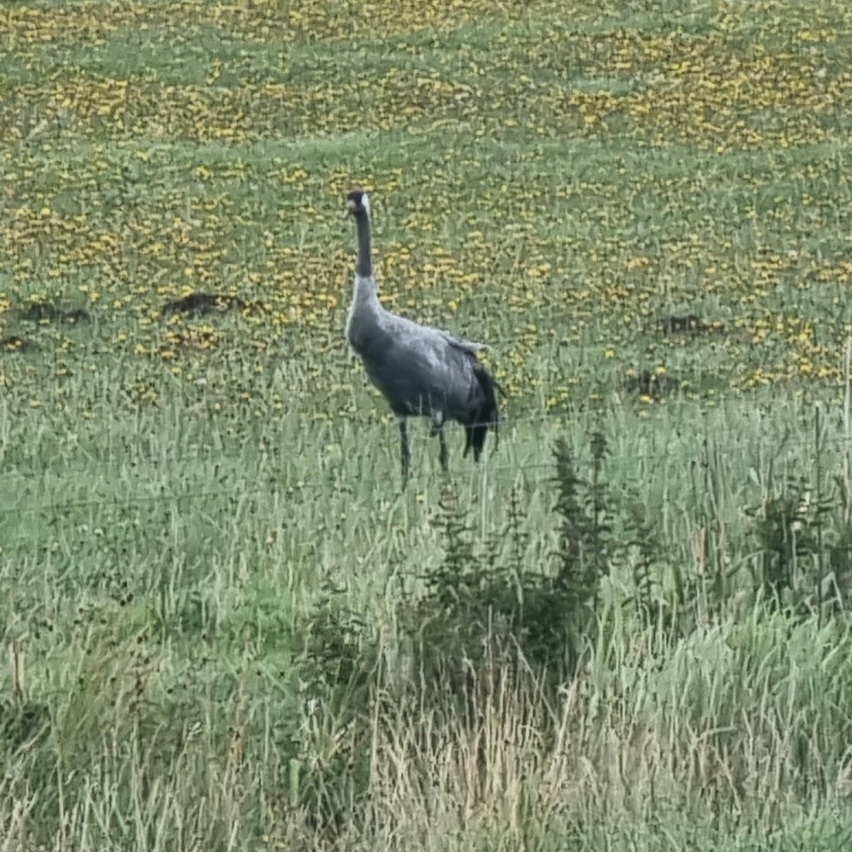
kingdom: Animalia
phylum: Chordata
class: Aves
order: Gruiformes
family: Gruidae
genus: Grus
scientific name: Grus grus
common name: Trane
